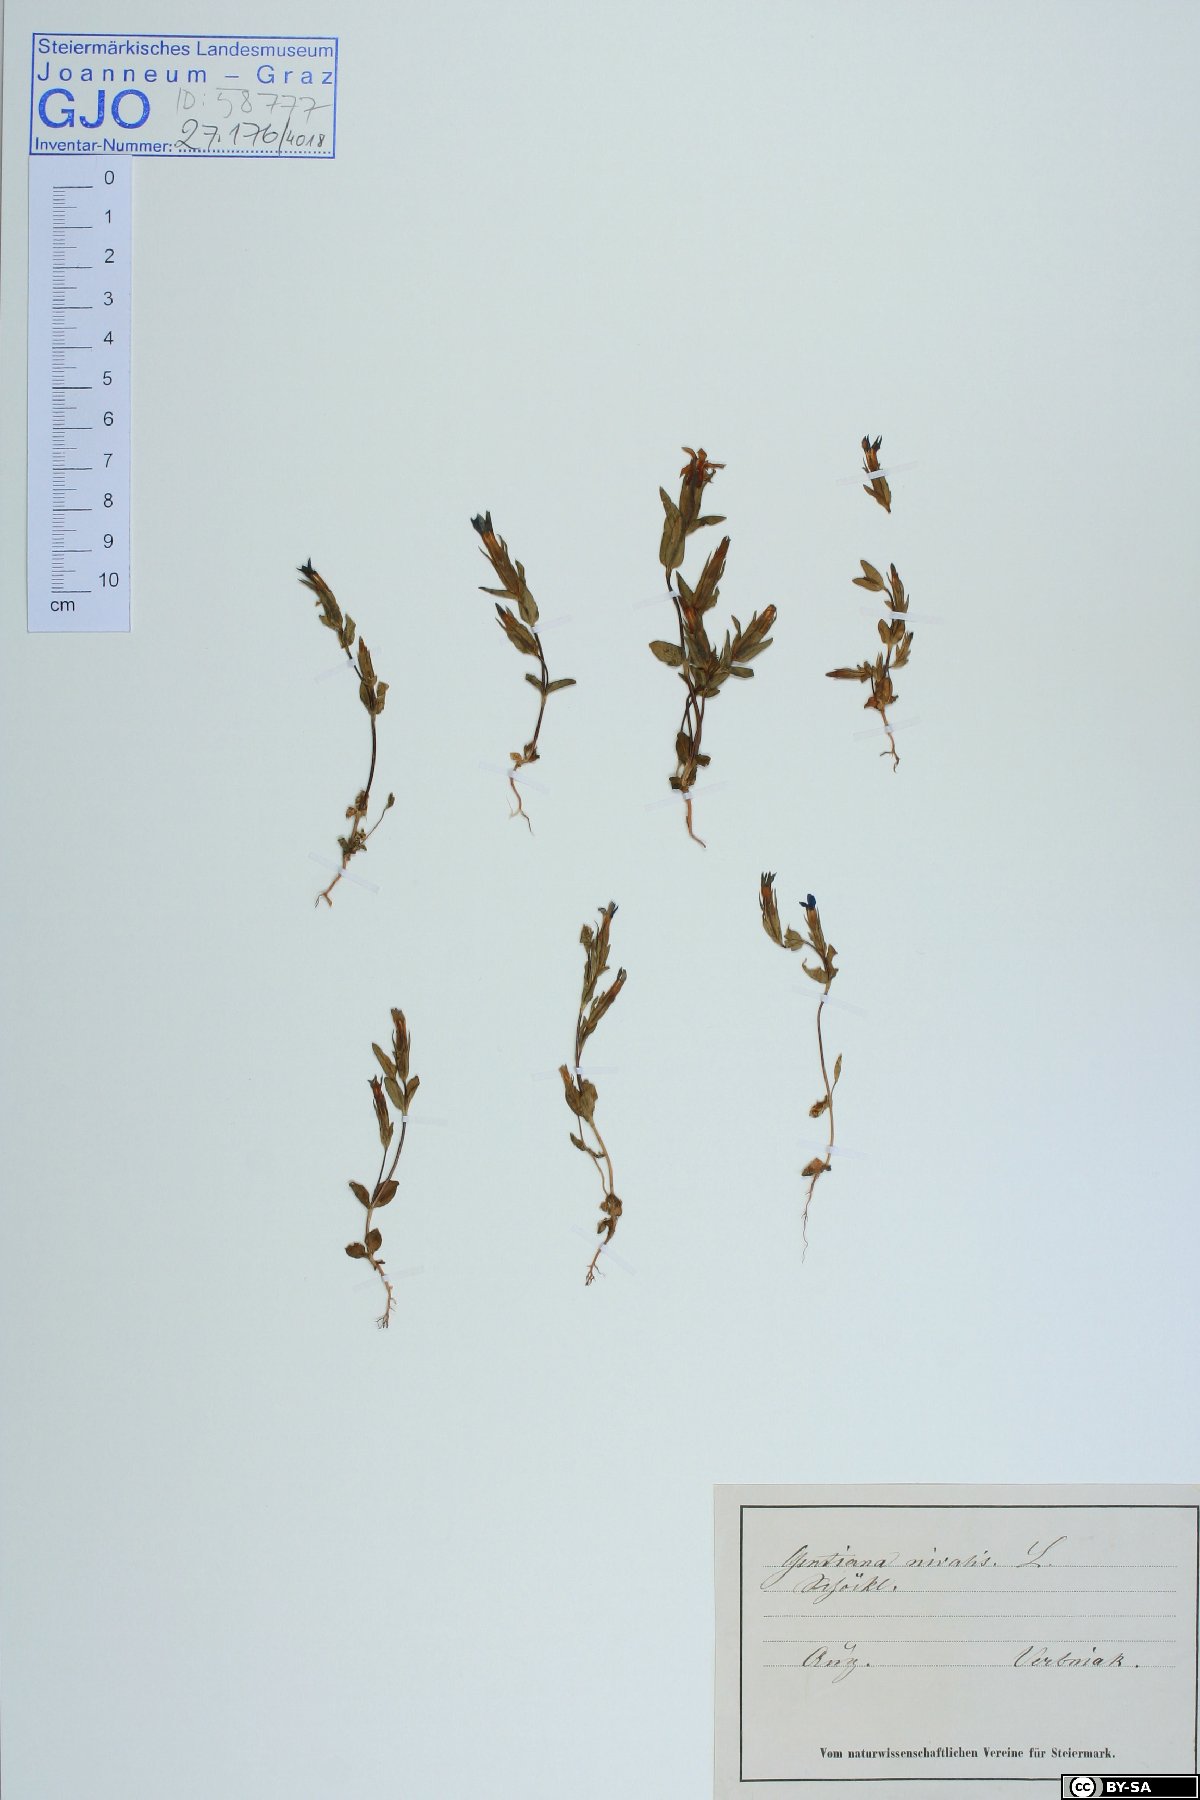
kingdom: Plantae
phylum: Tracheophyta
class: Magnoliopsida
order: Gentianales
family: Gentianaceae
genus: Gentiana
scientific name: Gentiana nivalis
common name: Alpine gentian
